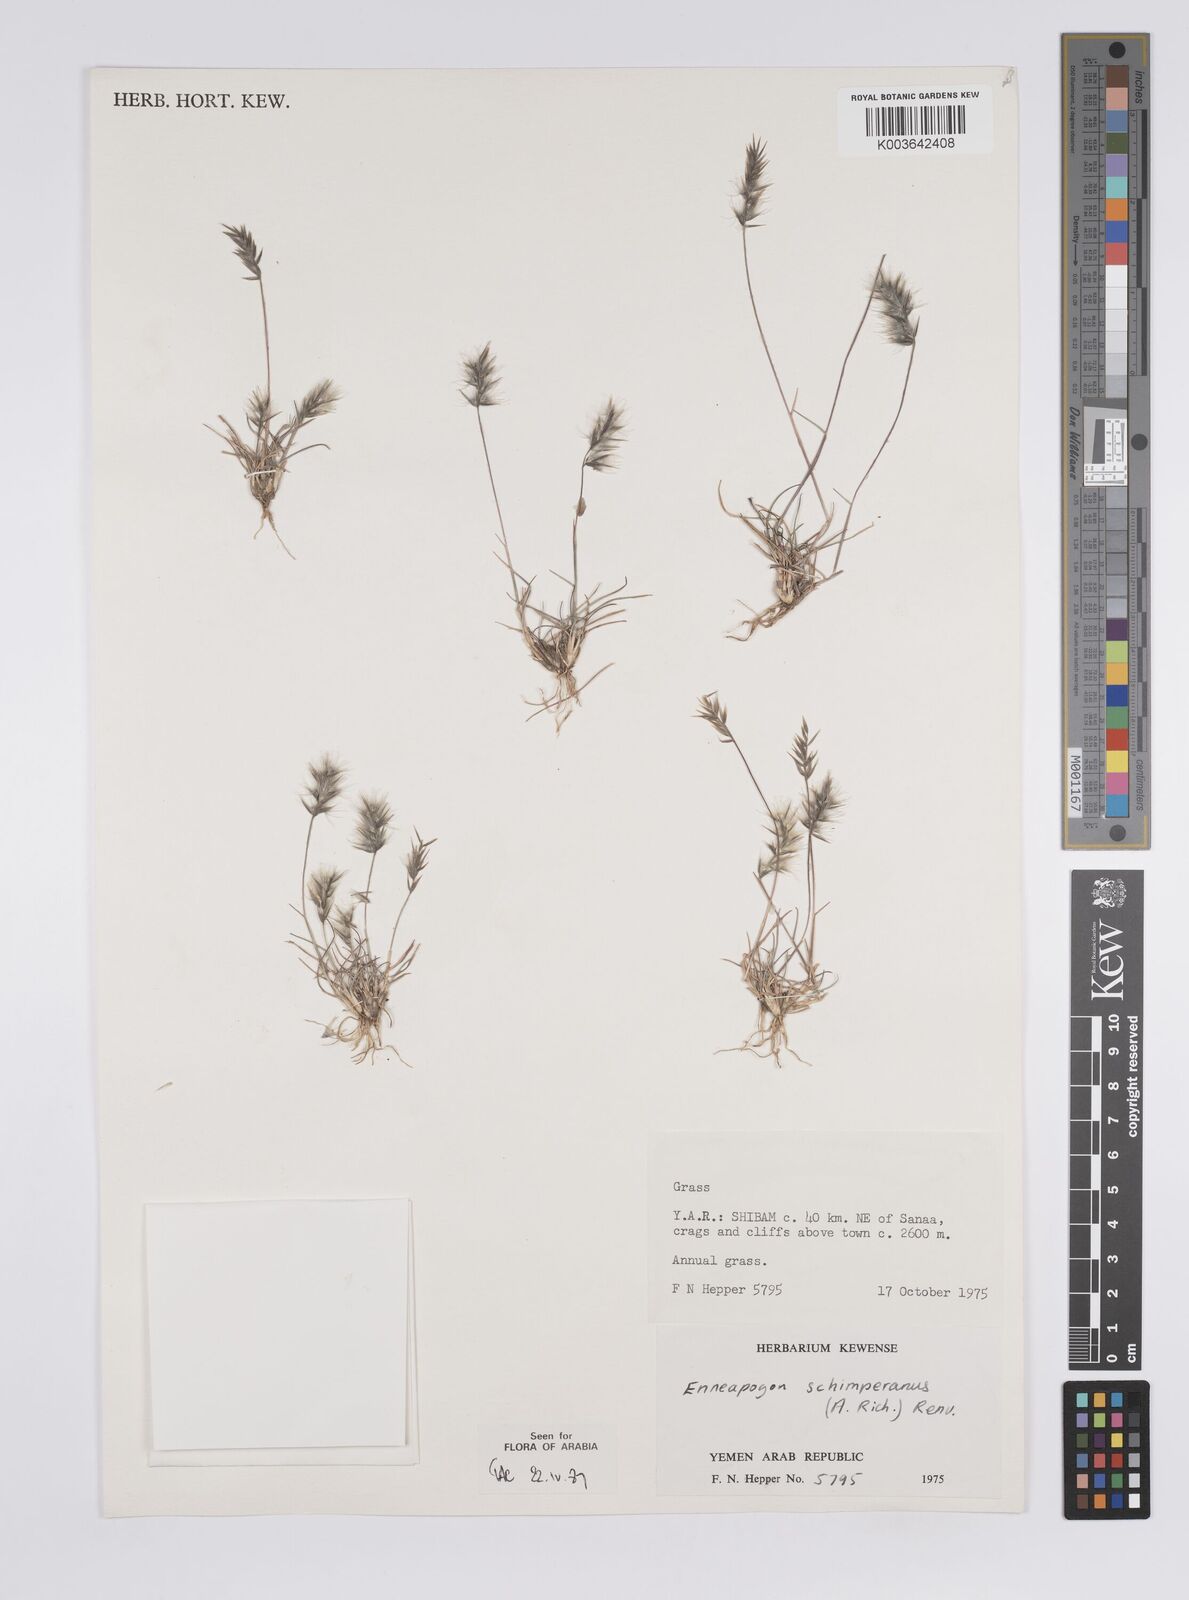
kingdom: Plantae
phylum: Tracheophyta
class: Liliopsida
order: Poales
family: Poaceae
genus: Enneapogon
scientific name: Enneapogon persicus
